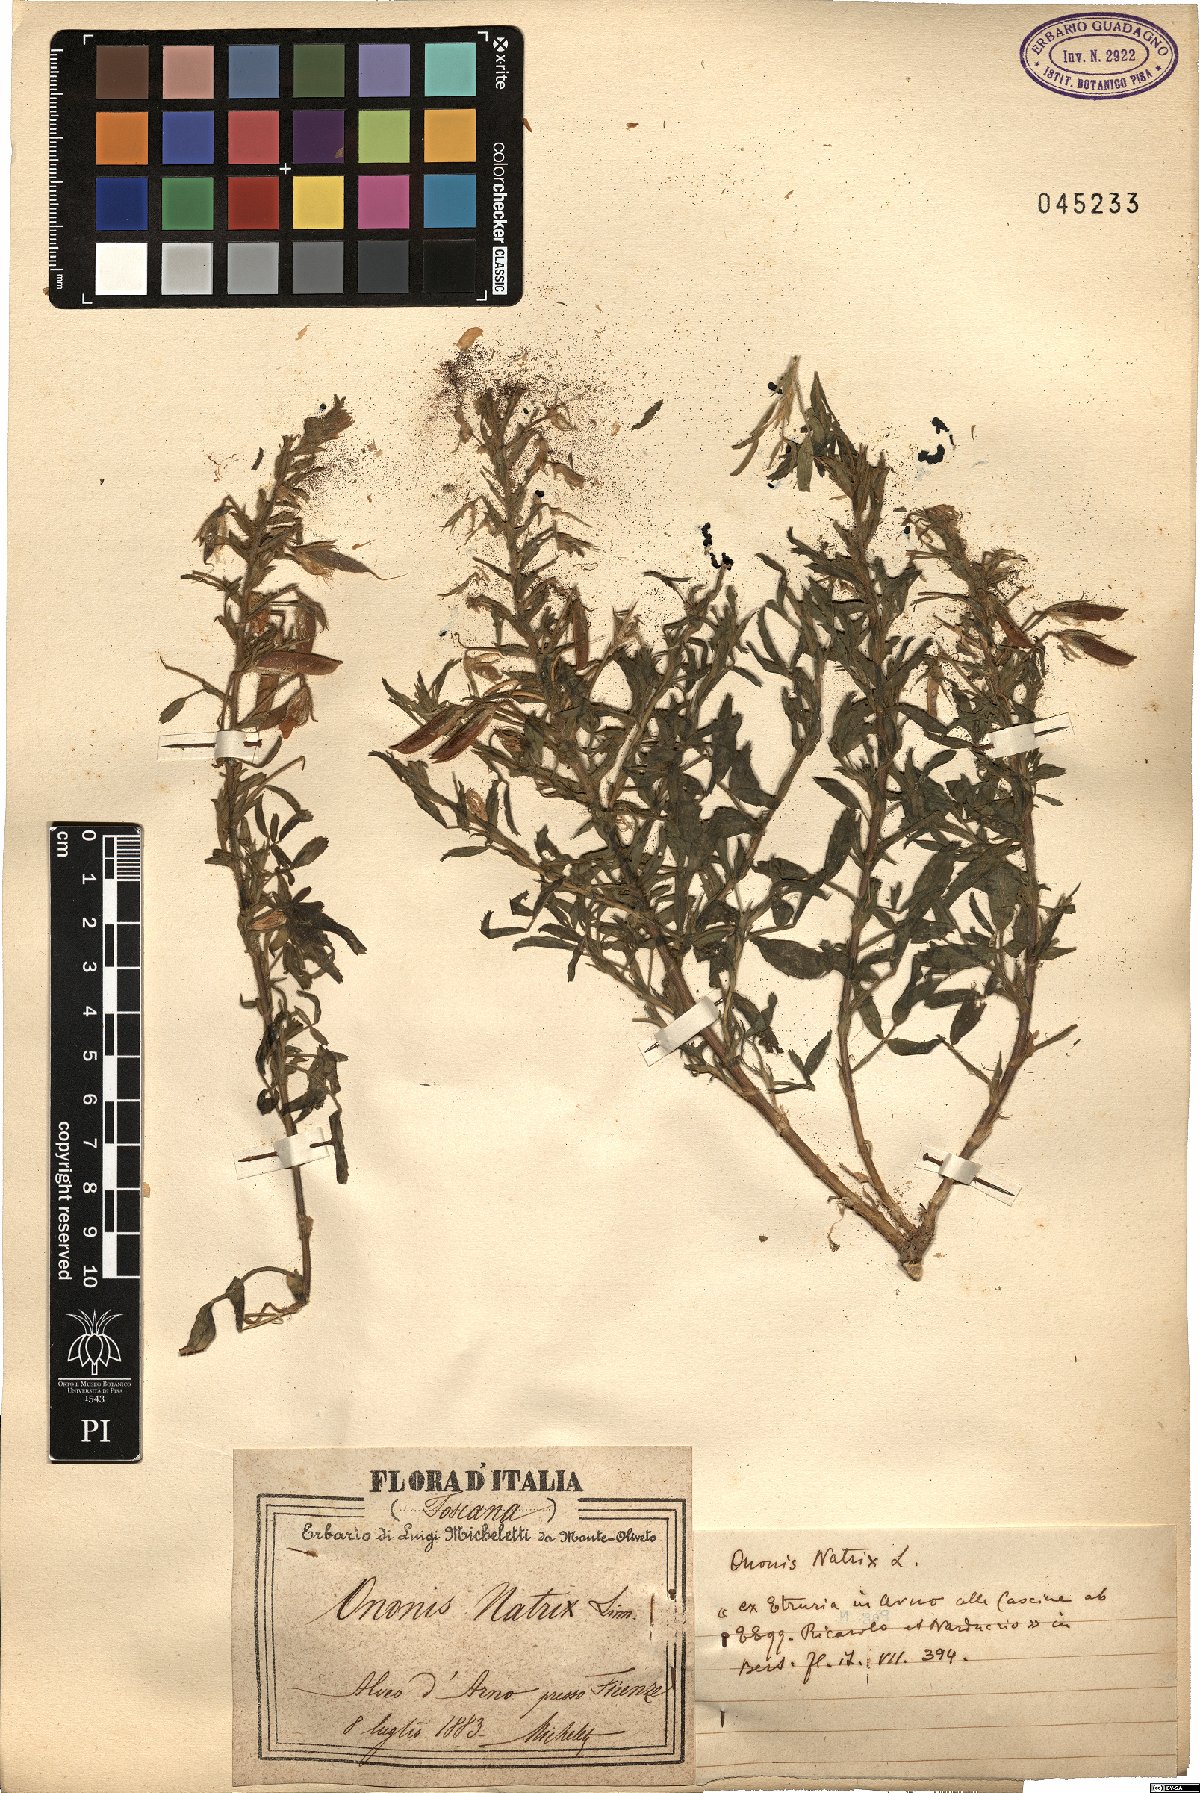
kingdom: Plantae
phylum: Tracheophyta
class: Magnoliopsida
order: Fabales
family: Fabaceae
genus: Ononis
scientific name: Ononis natrix
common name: Yellow restharrow
